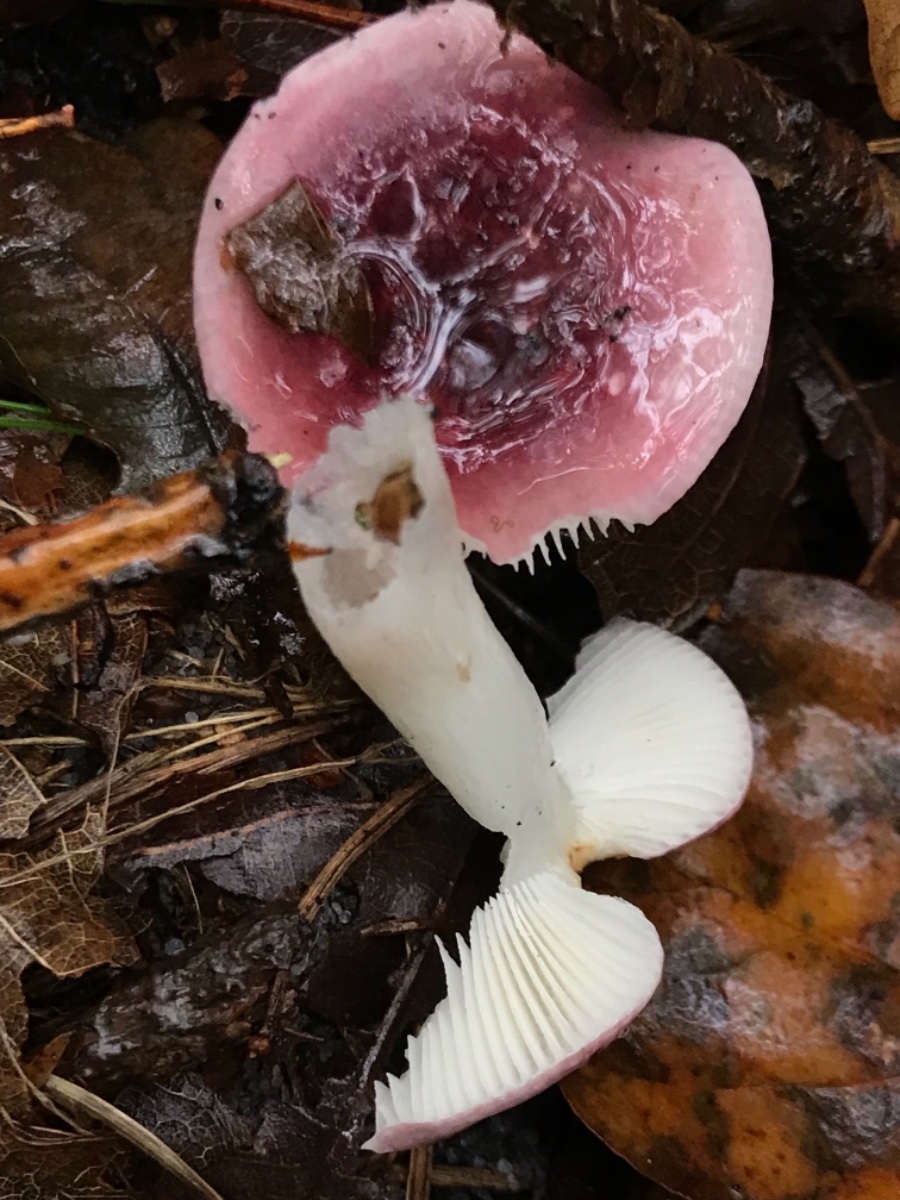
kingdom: Fungi
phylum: Basidiomycota
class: Agaricomycetes
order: Russulales
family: Russulaceae
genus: Russula
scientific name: Russula fragilis
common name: Fragile brittlegill
